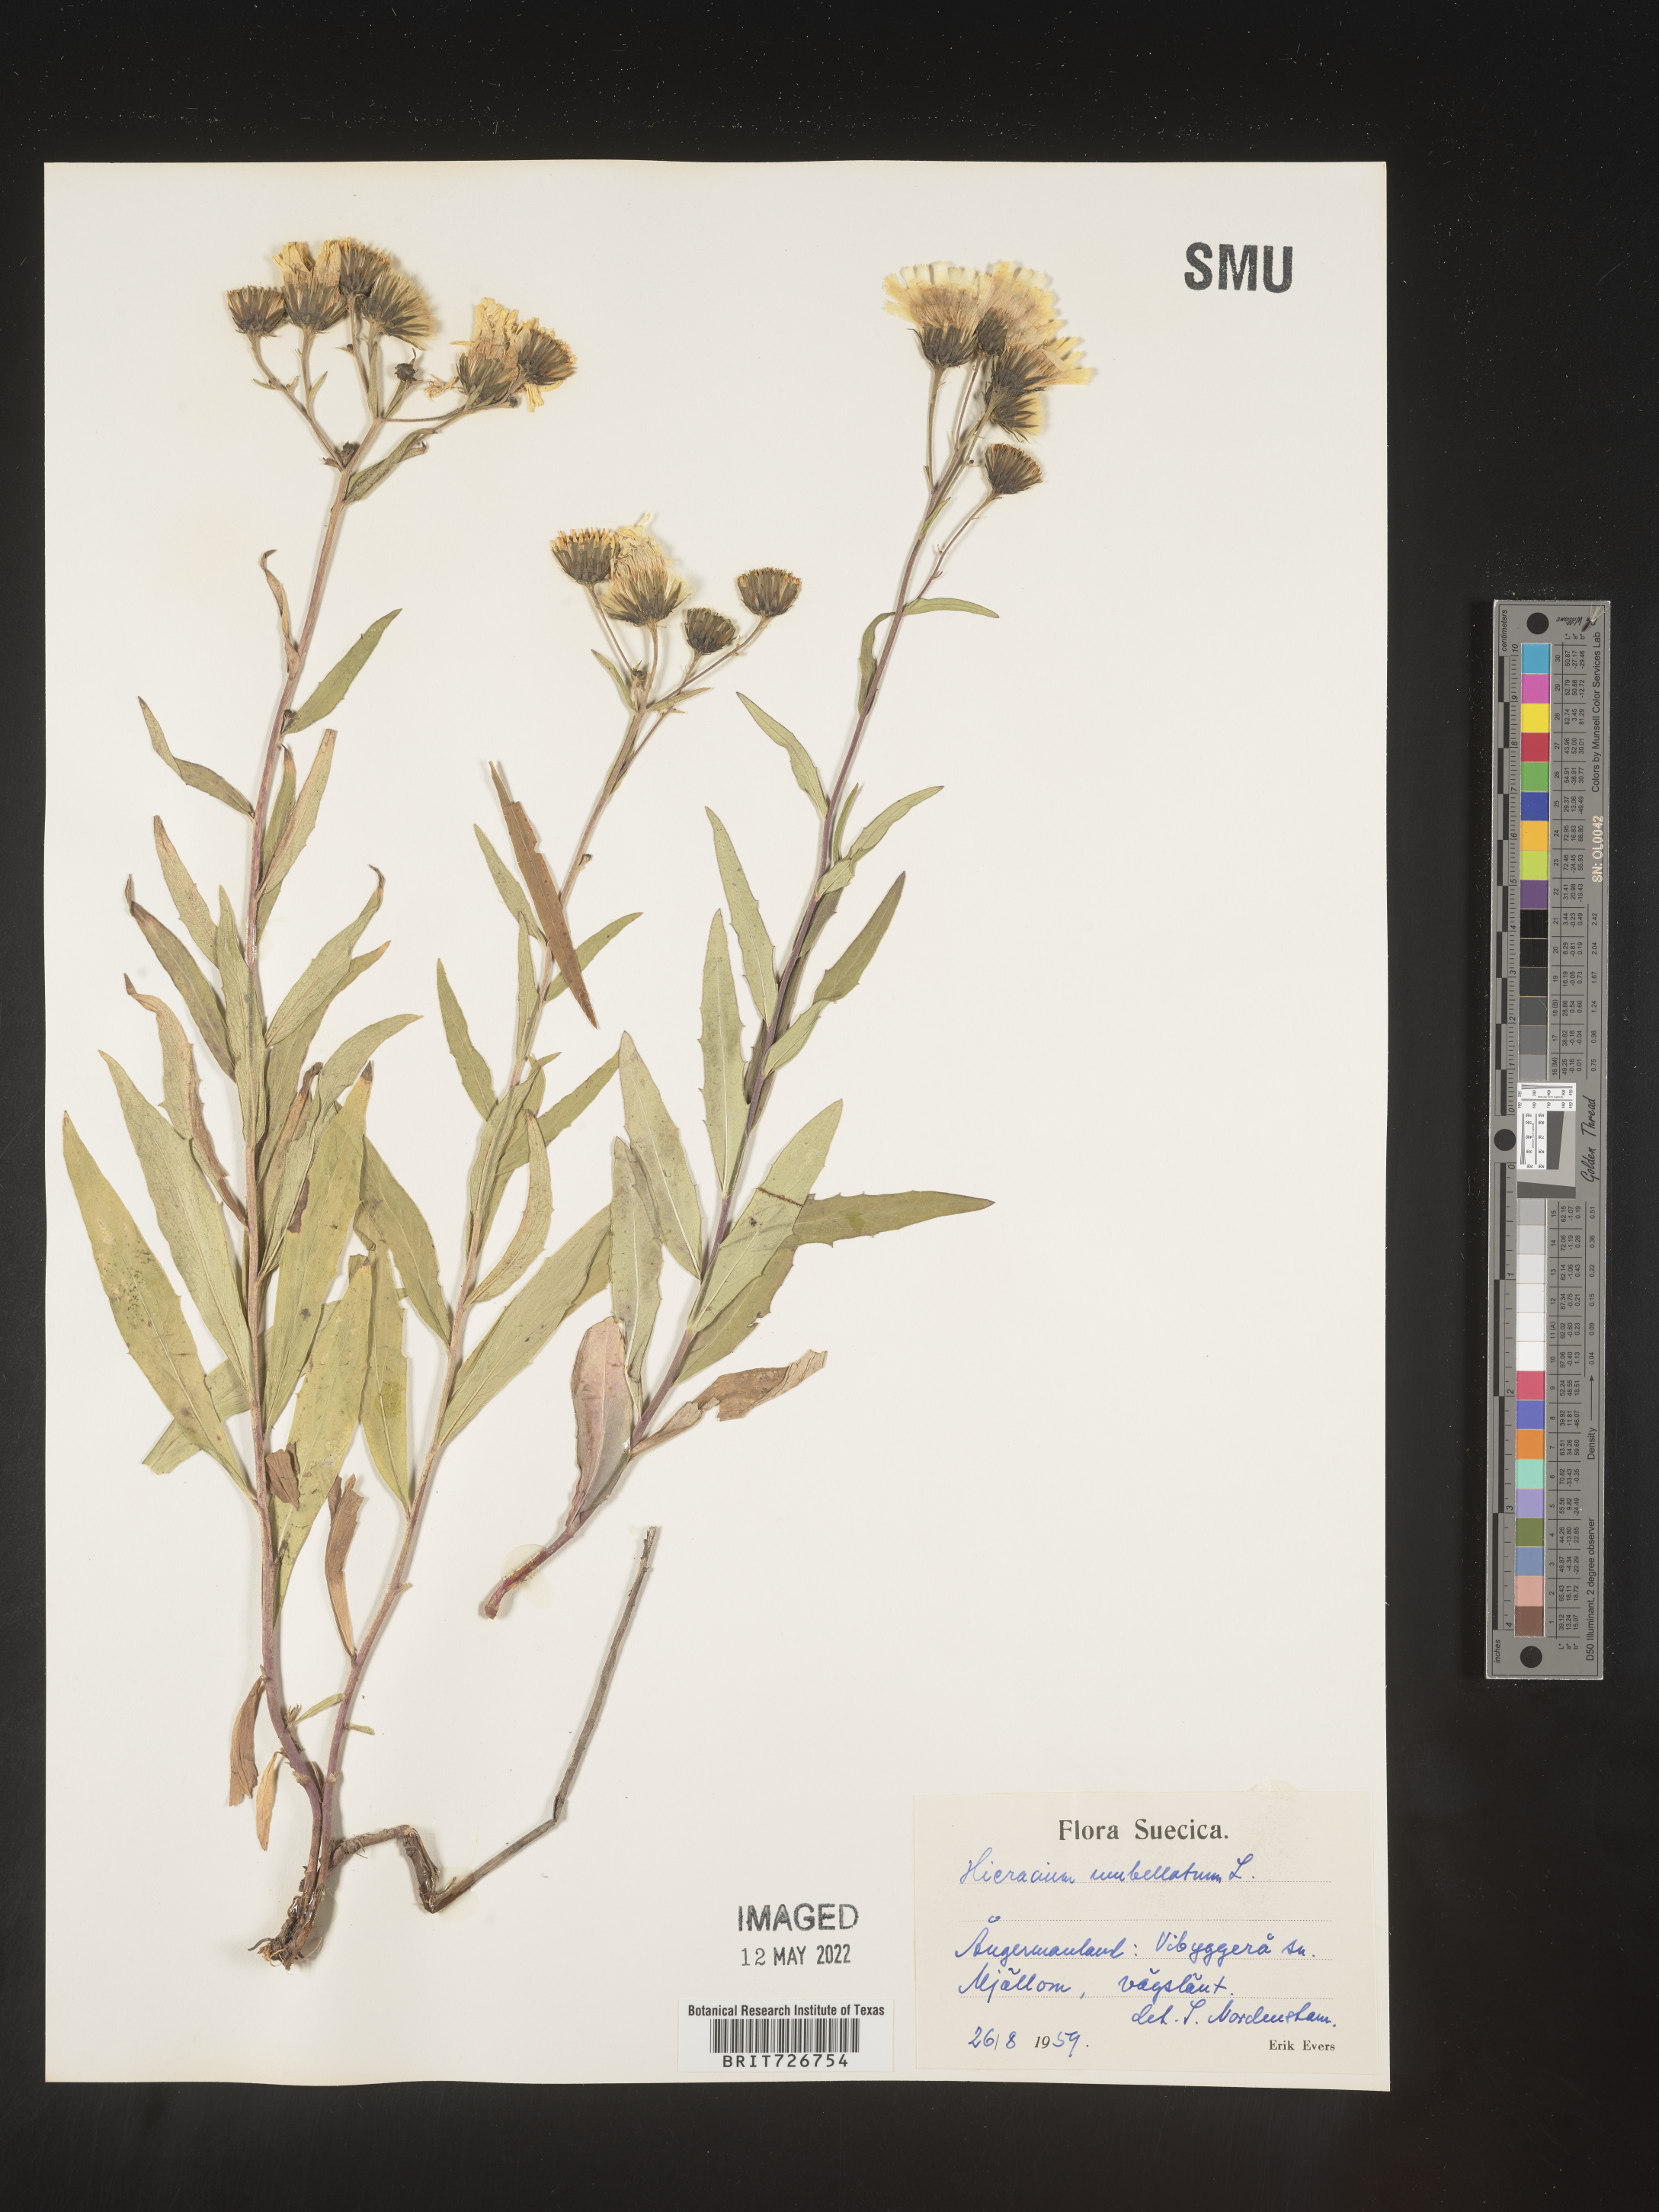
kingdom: Plantae
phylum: Tracheophyta
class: Magnoliopsida
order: Asterales
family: Asteraceae
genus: Hieracium
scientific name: Hieracium
